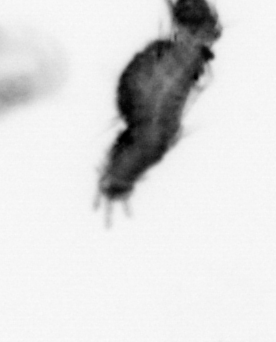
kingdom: Animalia
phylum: Annelida
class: Polychaeta
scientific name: Polychaeta
